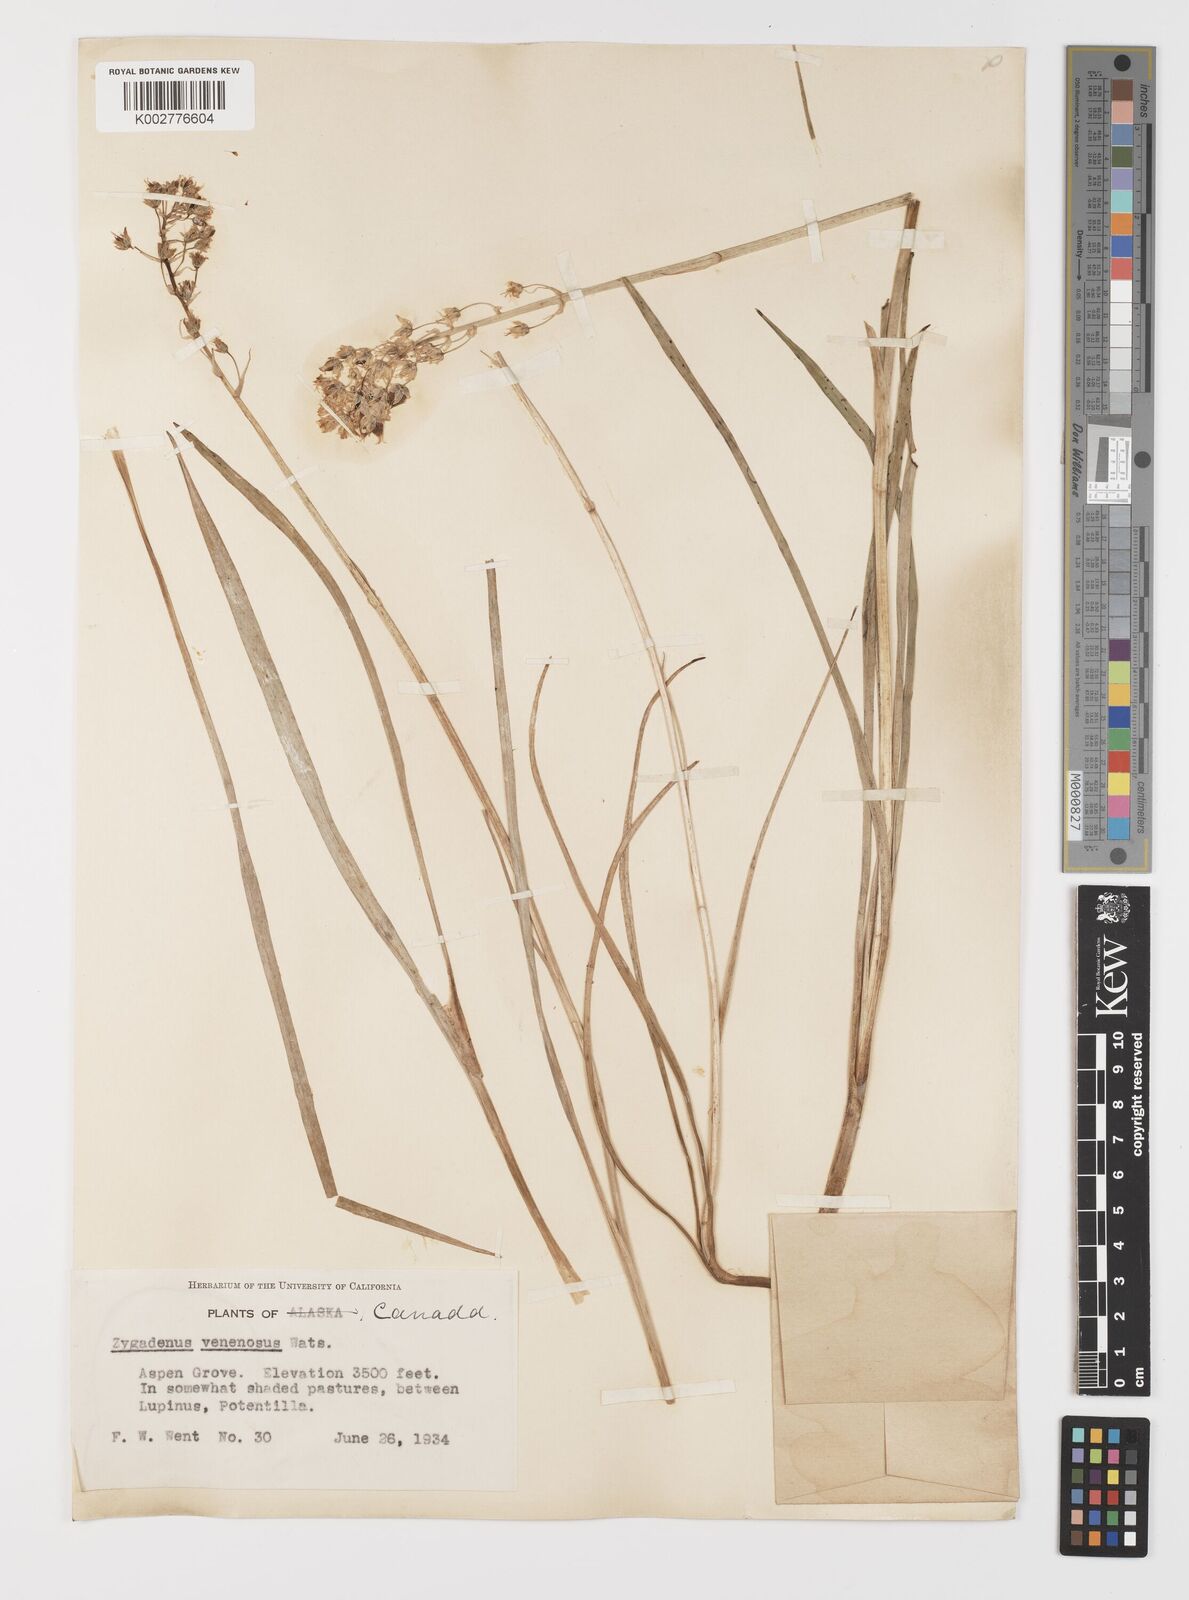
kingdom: Plantae
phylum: Tracheophyta
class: Liliopsida
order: Liliales
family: Melanthiaceae
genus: Toxicoscordion
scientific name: Toxicoscordion venenosum
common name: Meadow death camas
